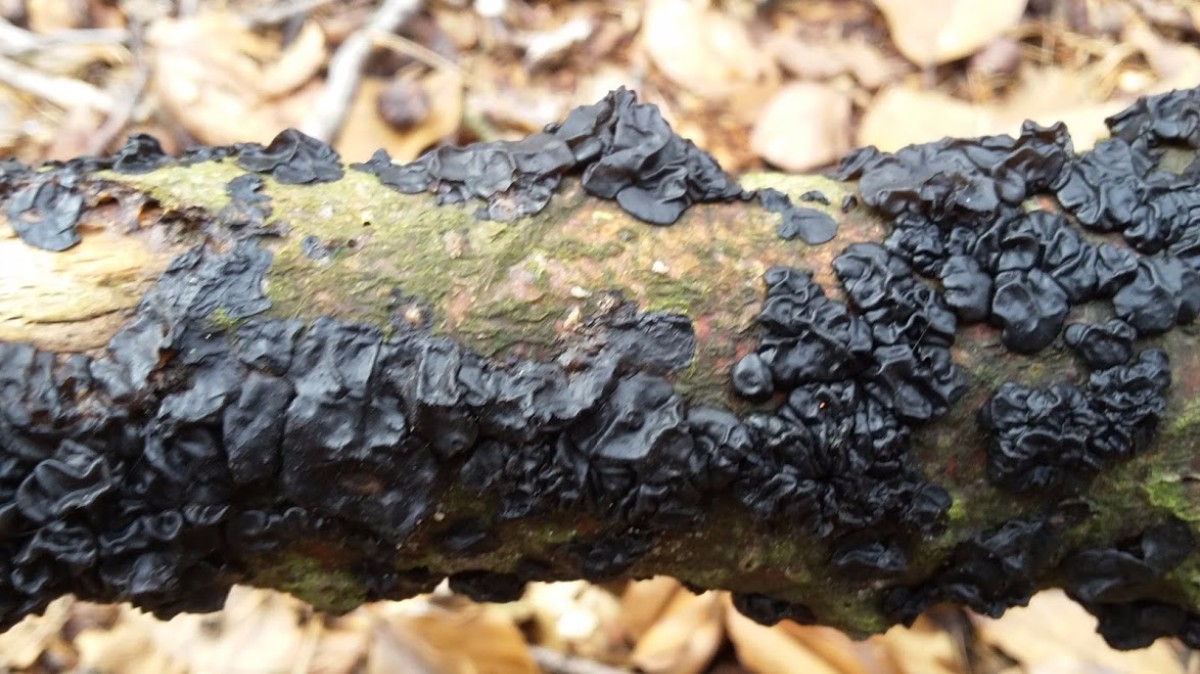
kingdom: Fungi
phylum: Basidiomycota
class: Agaricomycetes
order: Auriculariales
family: Auriculariaceae
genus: Exidia
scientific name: Exidia nigricans
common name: almindelig bævretop
